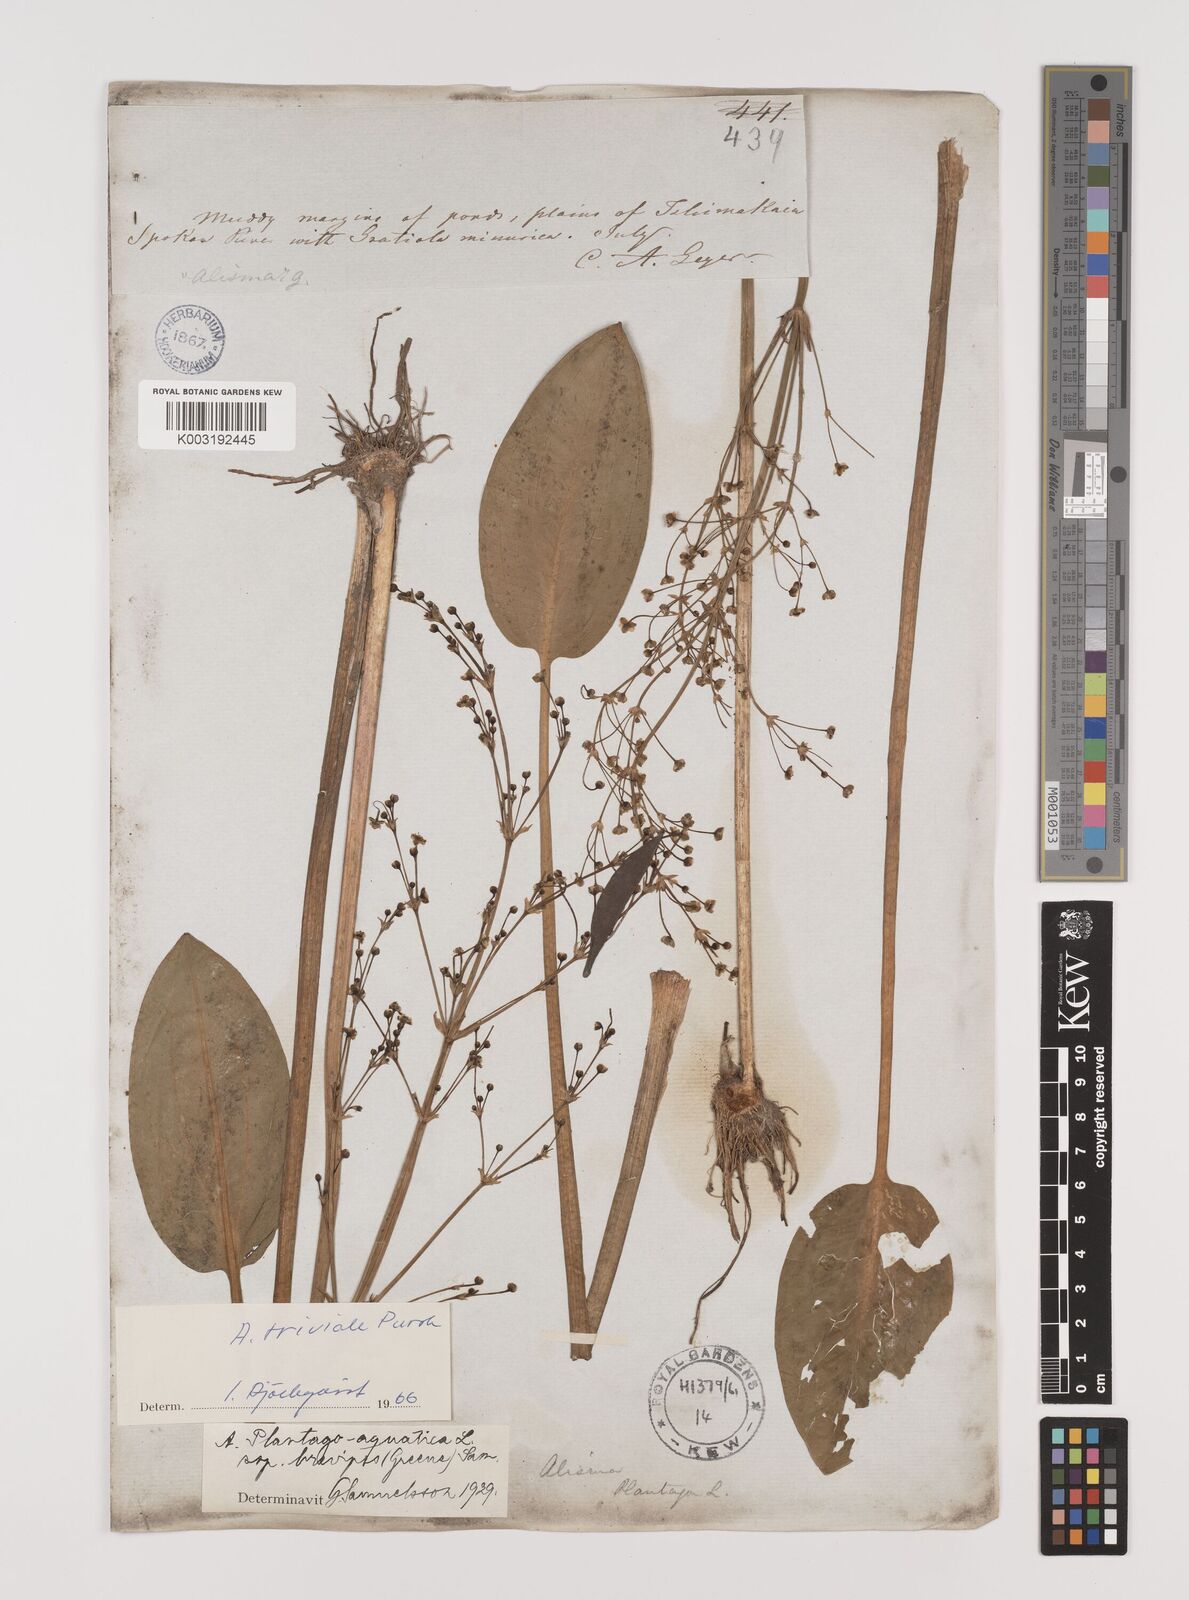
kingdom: Plantae
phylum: Tracheophyta
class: Liliopsida
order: Alismatales
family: Alismataceae
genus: Alisma
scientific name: Alisma triviale
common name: Northern water-plantain
